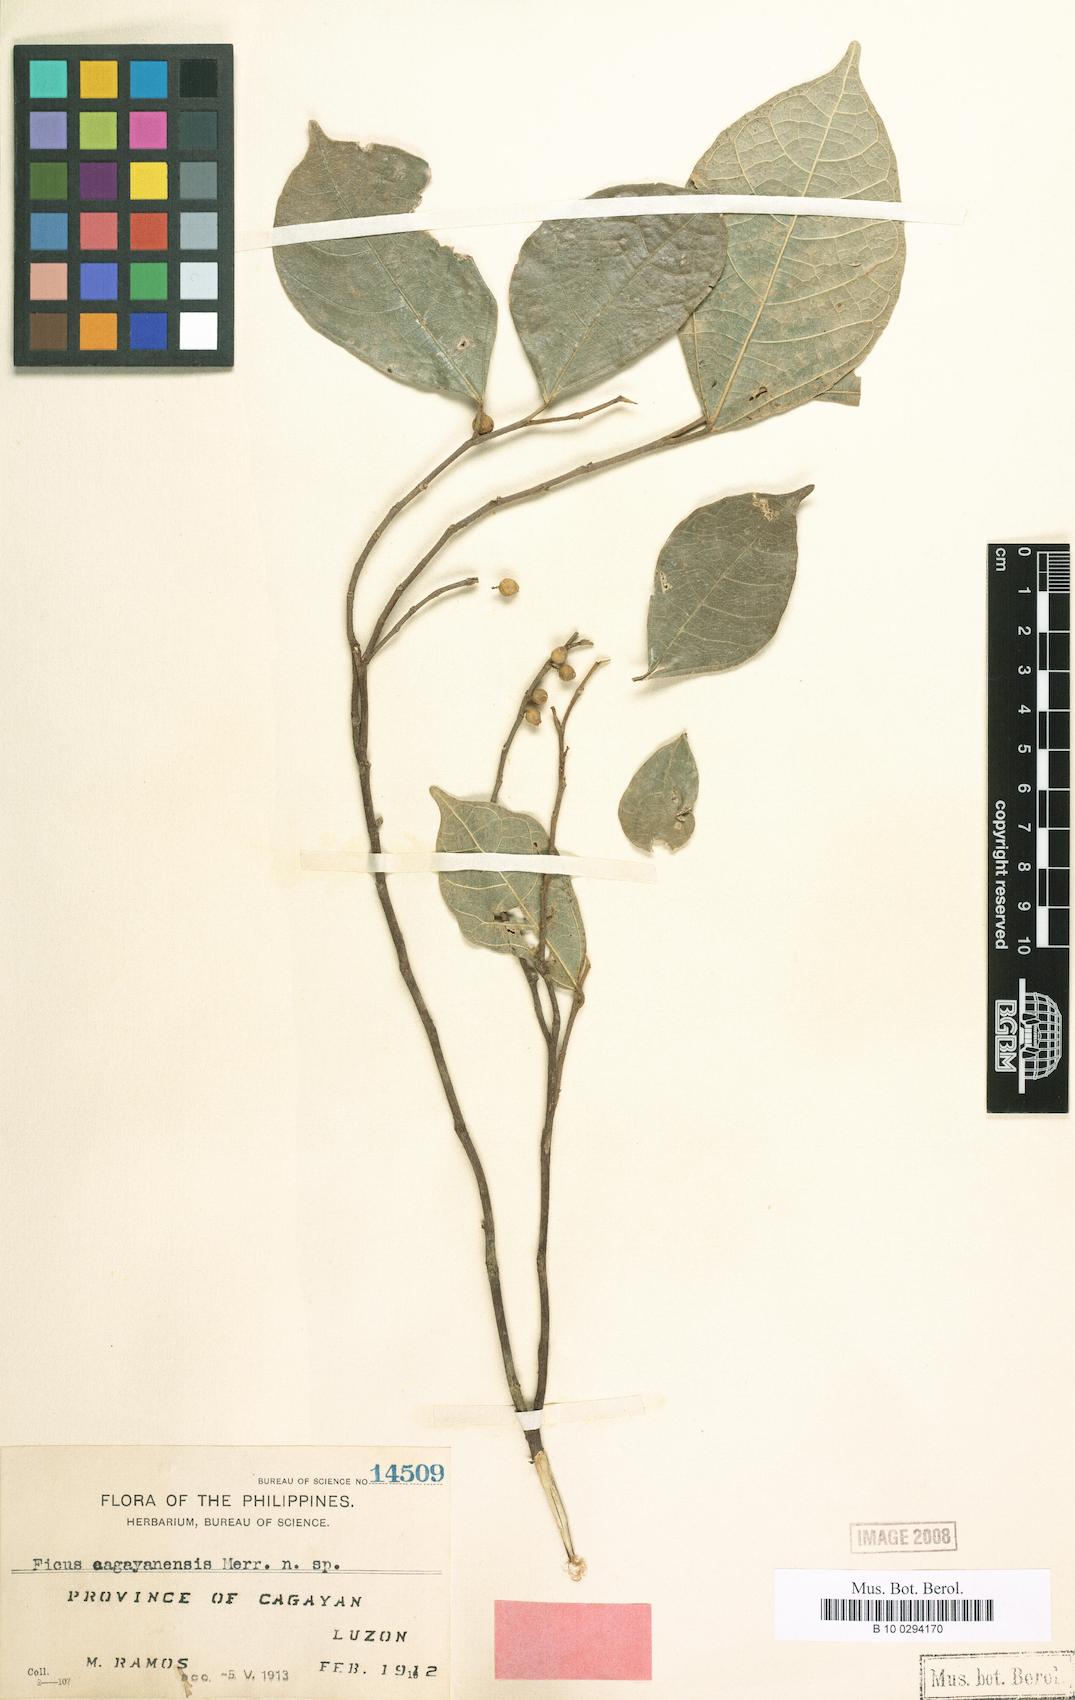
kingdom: Plantae
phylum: Tracheophyta
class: Magnoliopsida
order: Rosales
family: Moraceae
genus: Ficus
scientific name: Ficus
